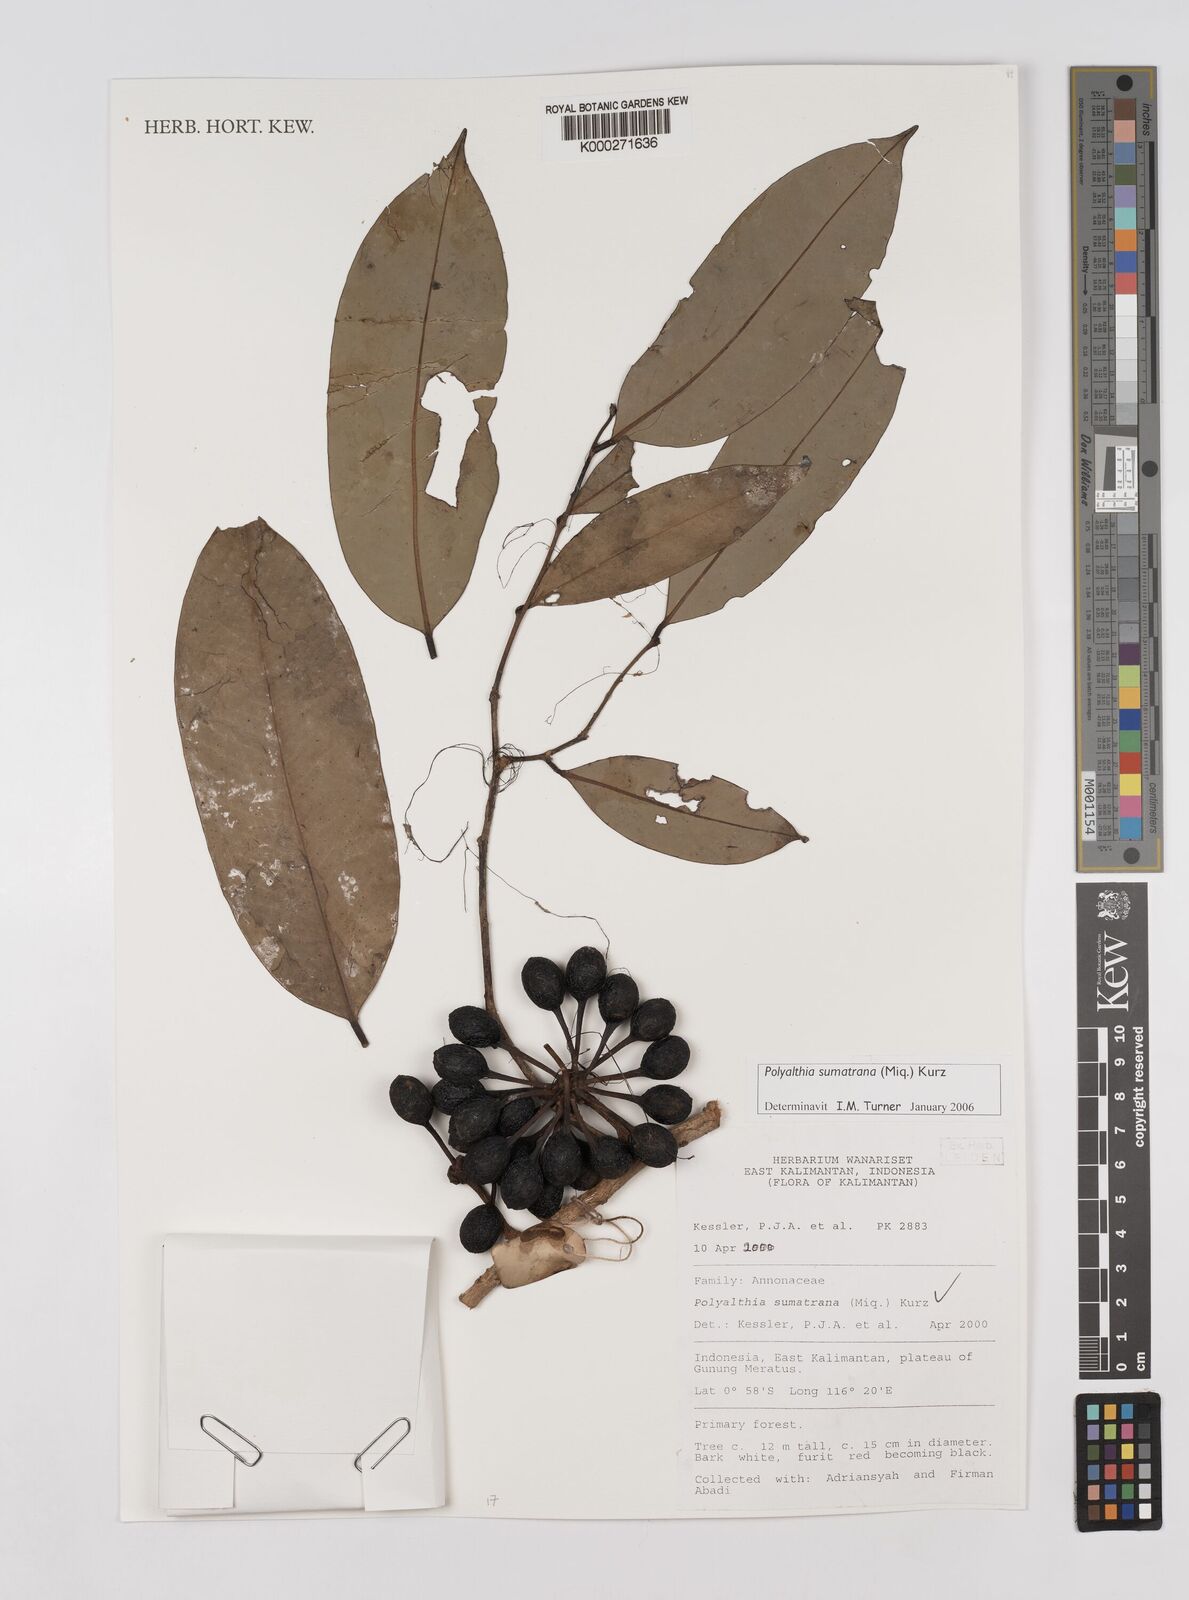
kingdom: Plantae
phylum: Tracheophyta
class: Magnoliopsida
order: Magnoliales
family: Annonaceae
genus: Maasia
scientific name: Maasia sumatrana
